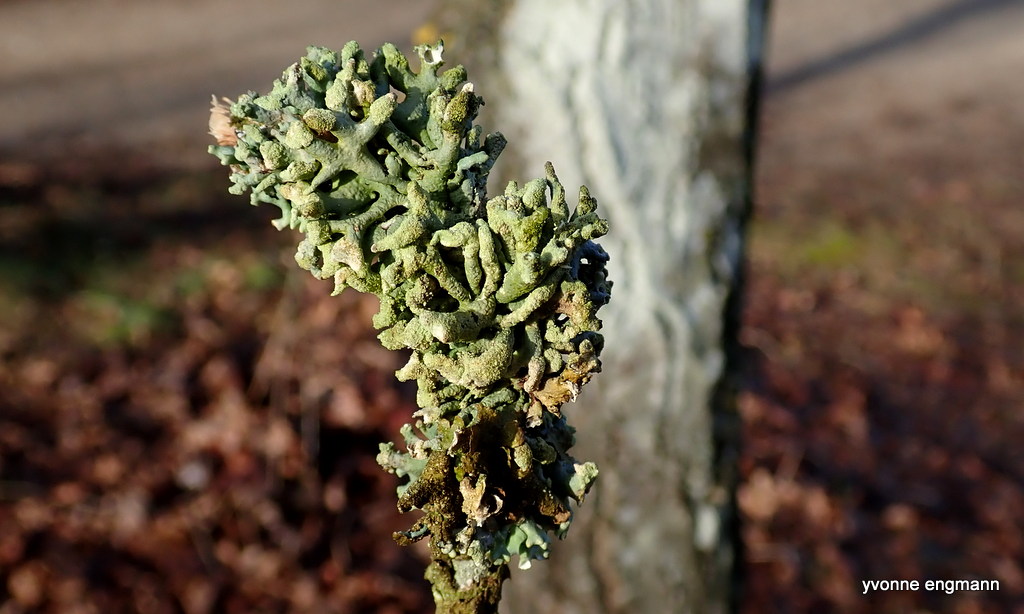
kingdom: Fungi
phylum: Ascomycota
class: Lecanoromycetes
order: Lecanorales
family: Parmeliaceae
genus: Hypogymnia
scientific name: Hypogymnia tubulosa
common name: finger-kvistlav
